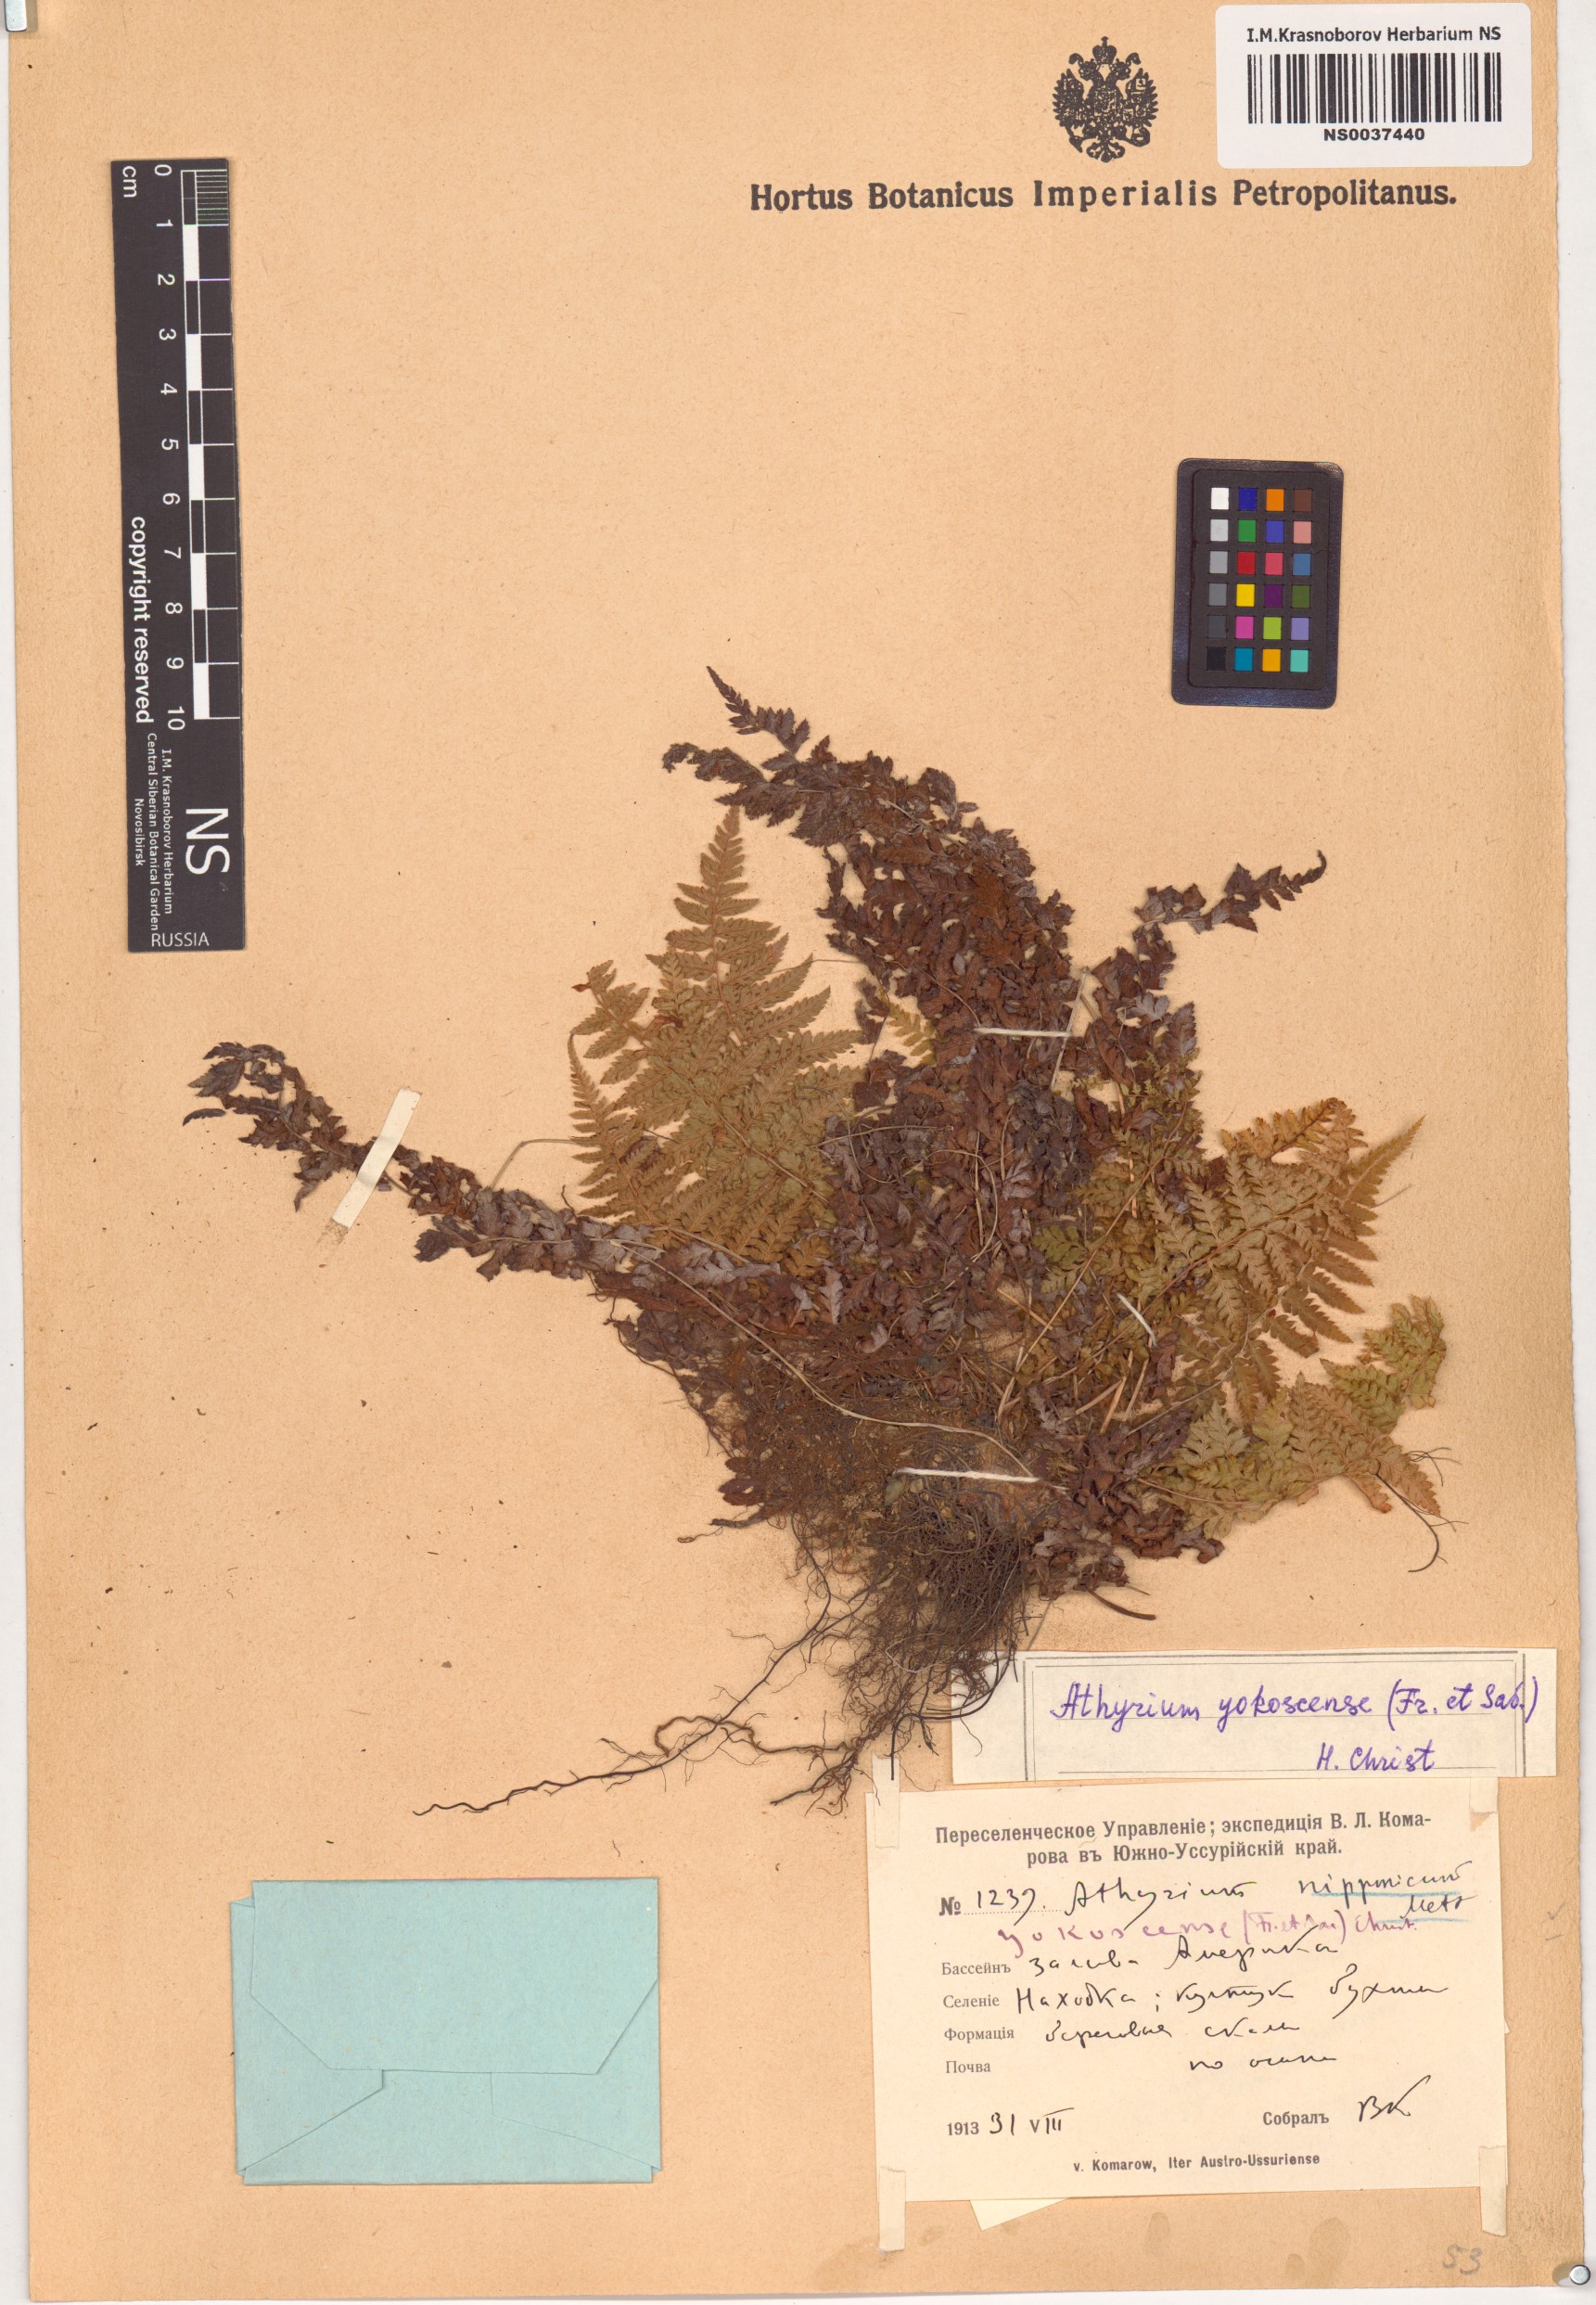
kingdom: Plantae
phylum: Tracheophyta
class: Polypodiopsida
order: Polypodiales
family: Athyriaceae
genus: Athyrium
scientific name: Athyrium yokoscense
